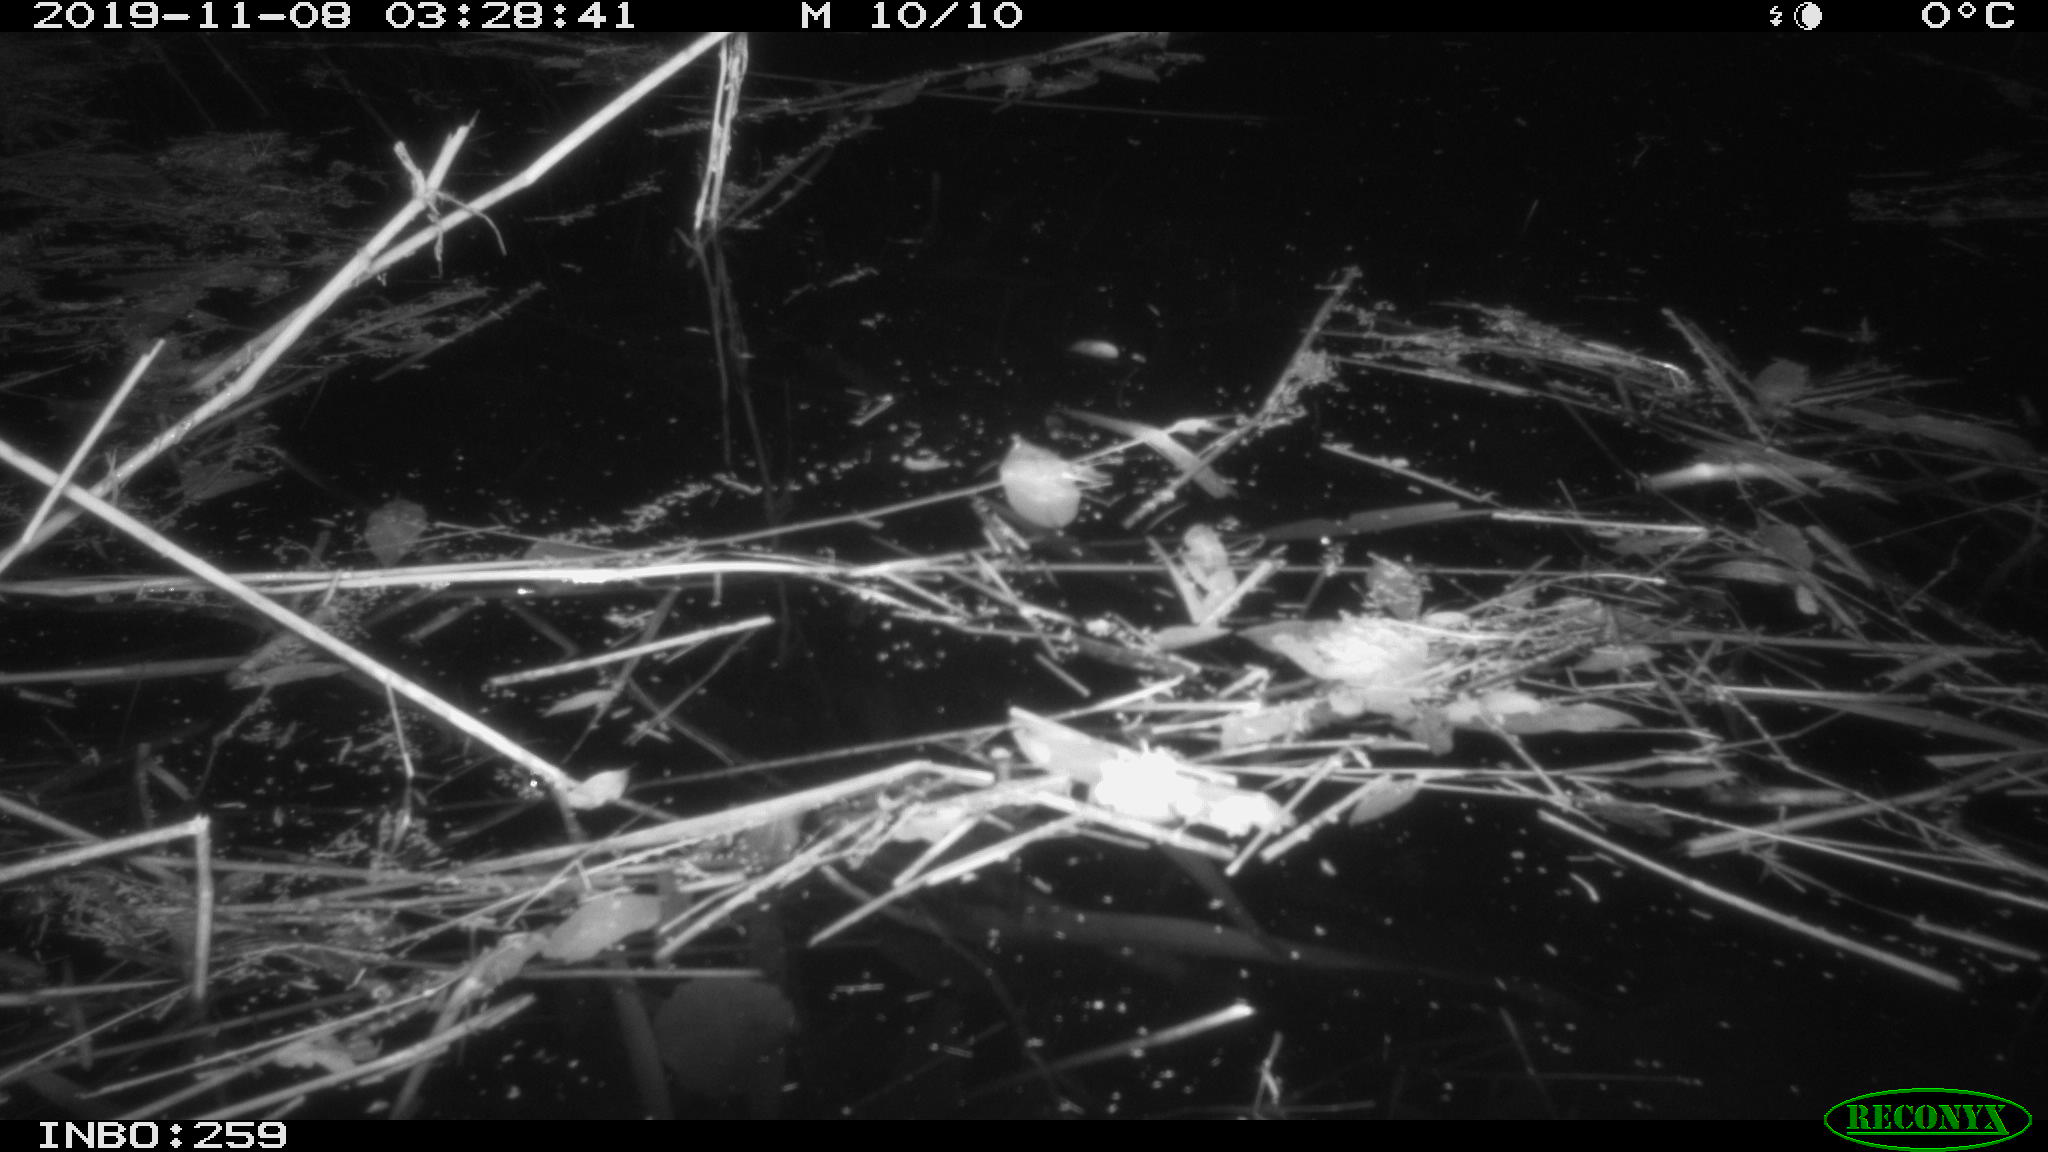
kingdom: Animalia
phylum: Chordata
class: Mammalia
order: Rodentia
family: Muridae
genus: Rattus
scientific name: Rattus norvegicus
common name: Brown rat
